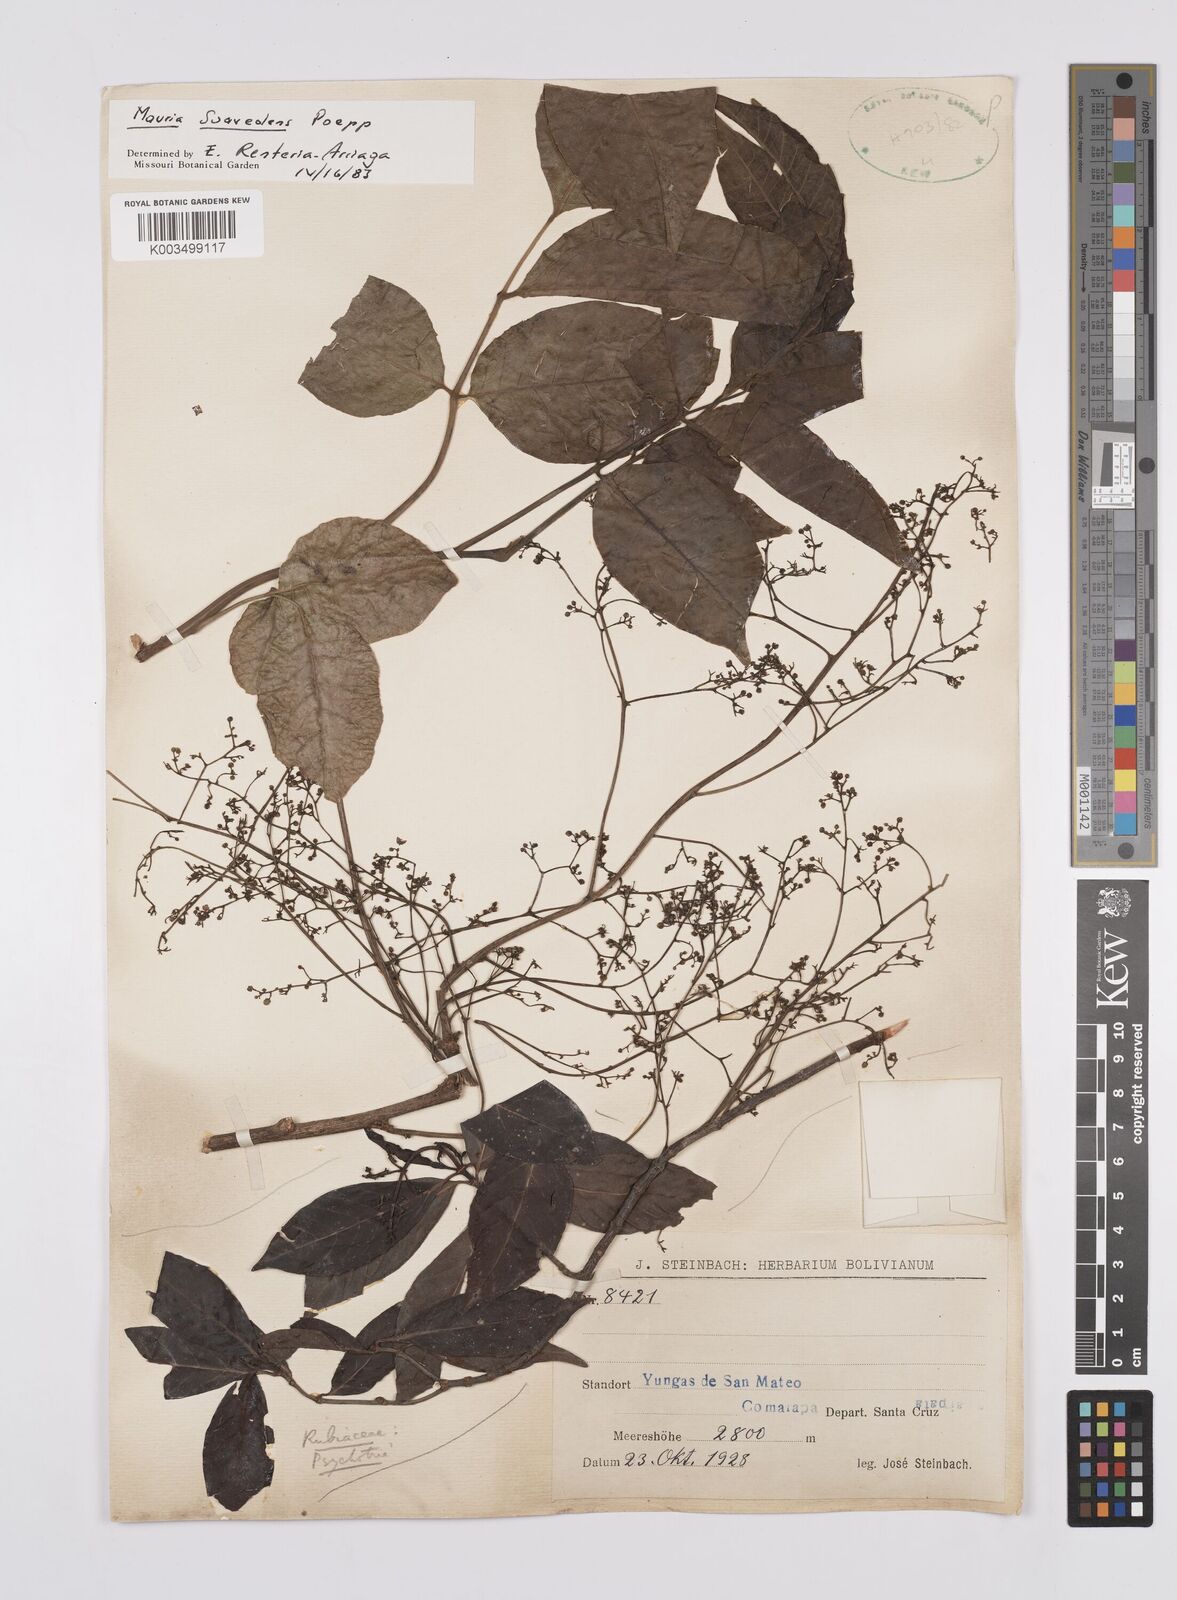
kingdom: Plantae
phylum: Tracheophyta
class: Magnoliopsida
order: Sapindales
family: Anacardiaceae
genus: Mauria
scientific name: Mauria heterophylla
